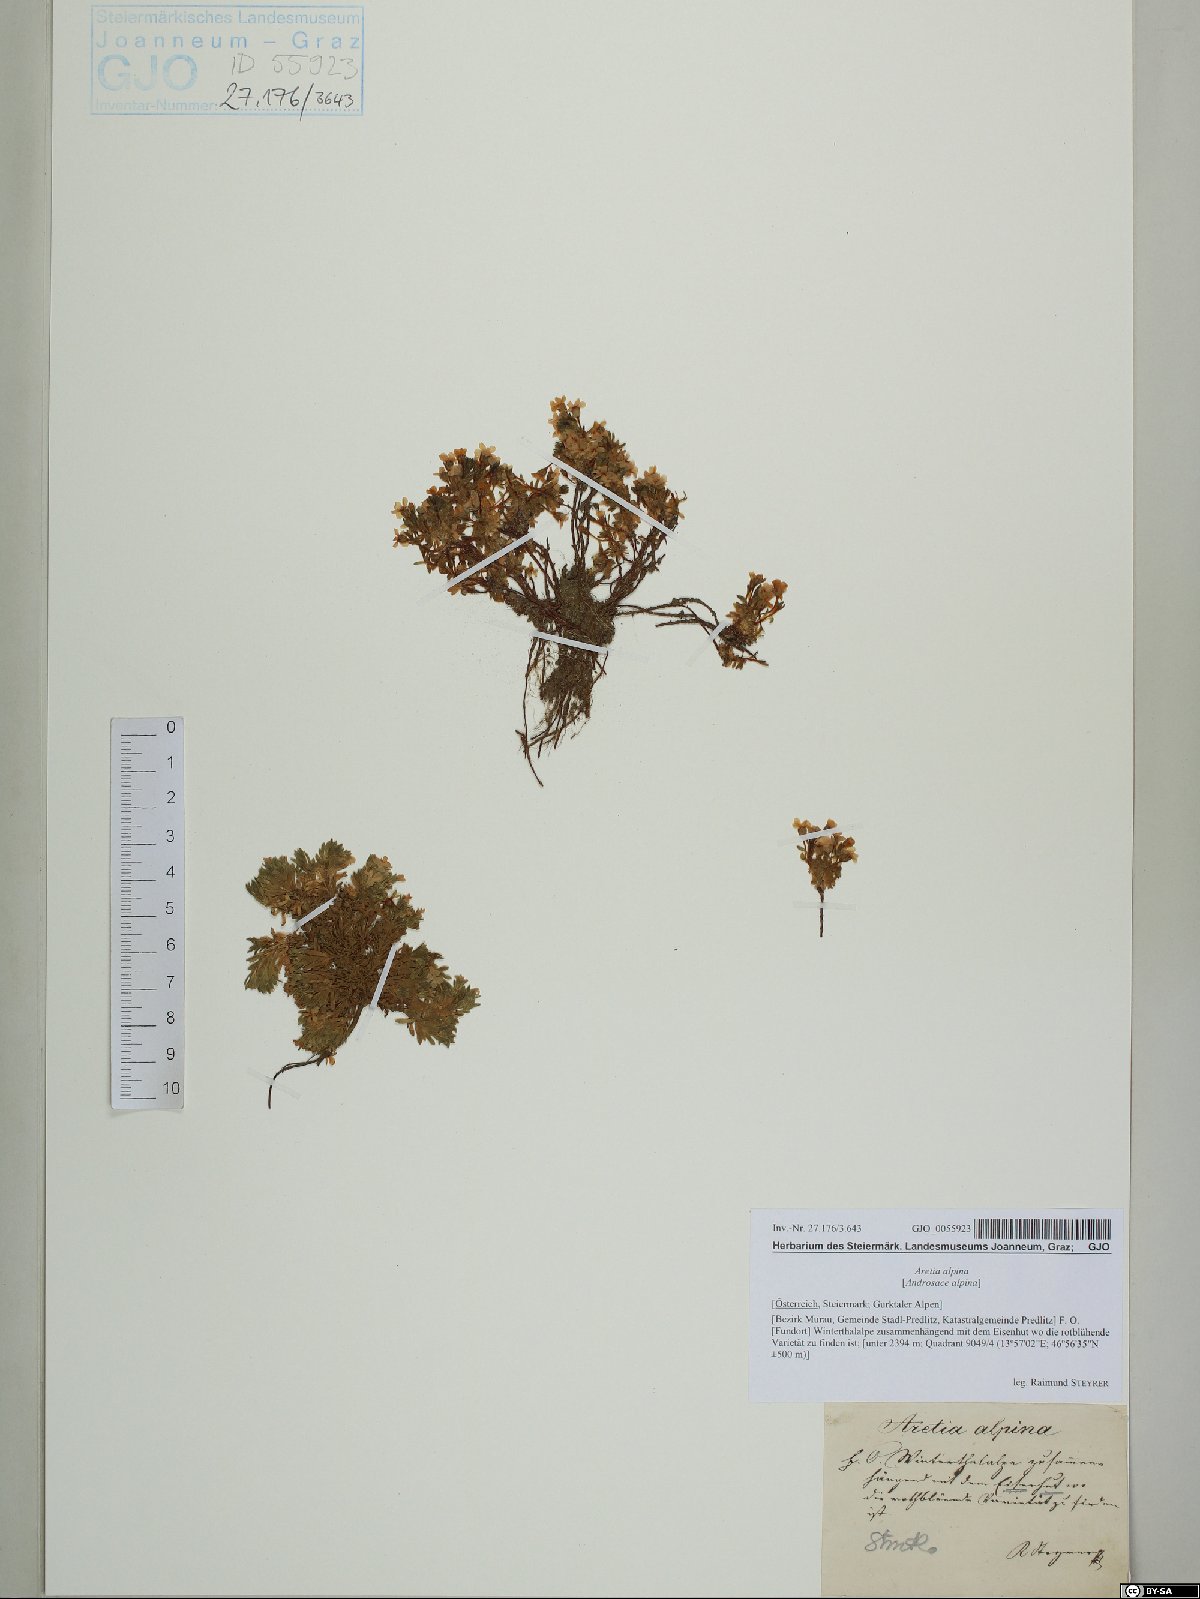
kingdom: Plantae
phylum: Tracheophyta
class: Magnoliopsida
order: Ericales
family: Primulaceae
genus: Androsace
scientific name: Androsace alpina
